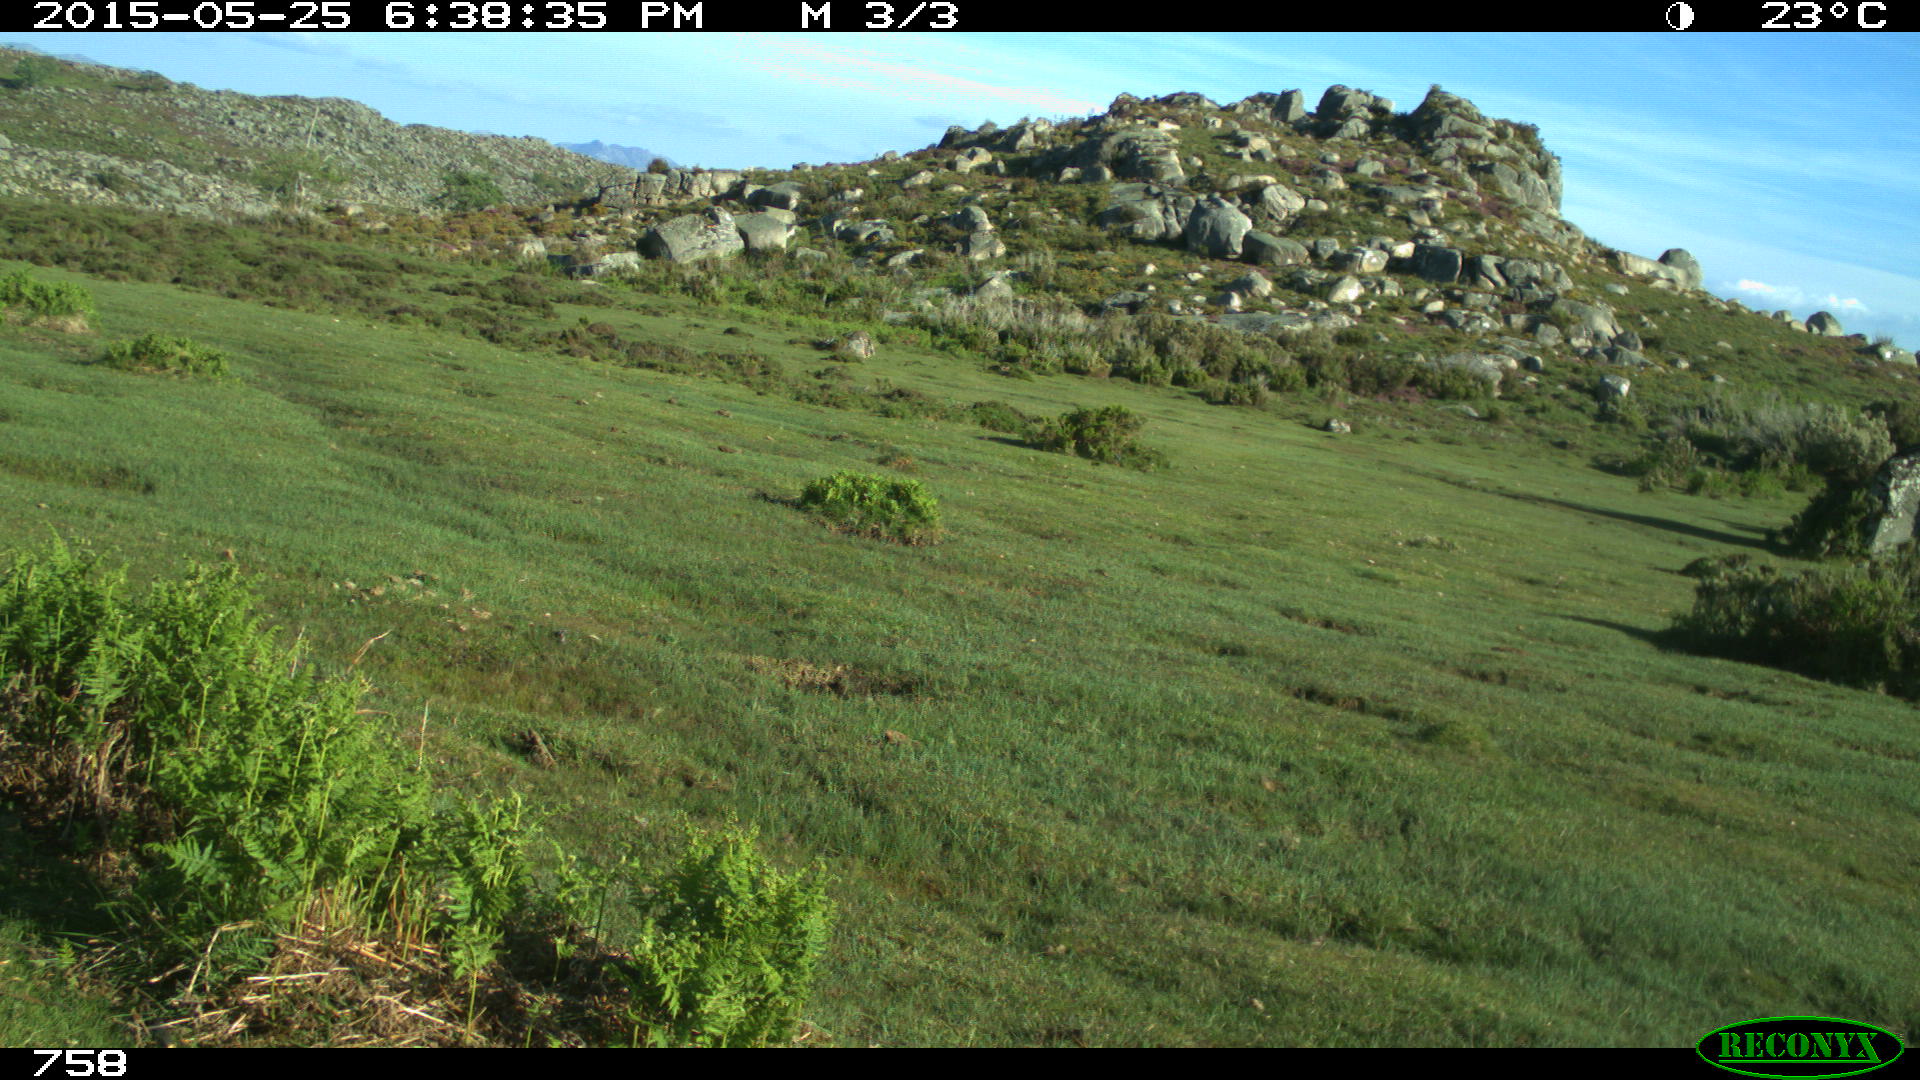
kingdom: Animalia
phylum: Chordata
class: Mammalia
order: Perissodactyla
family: Equidae
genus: Equus
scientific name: Equus caballus
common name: Horse
